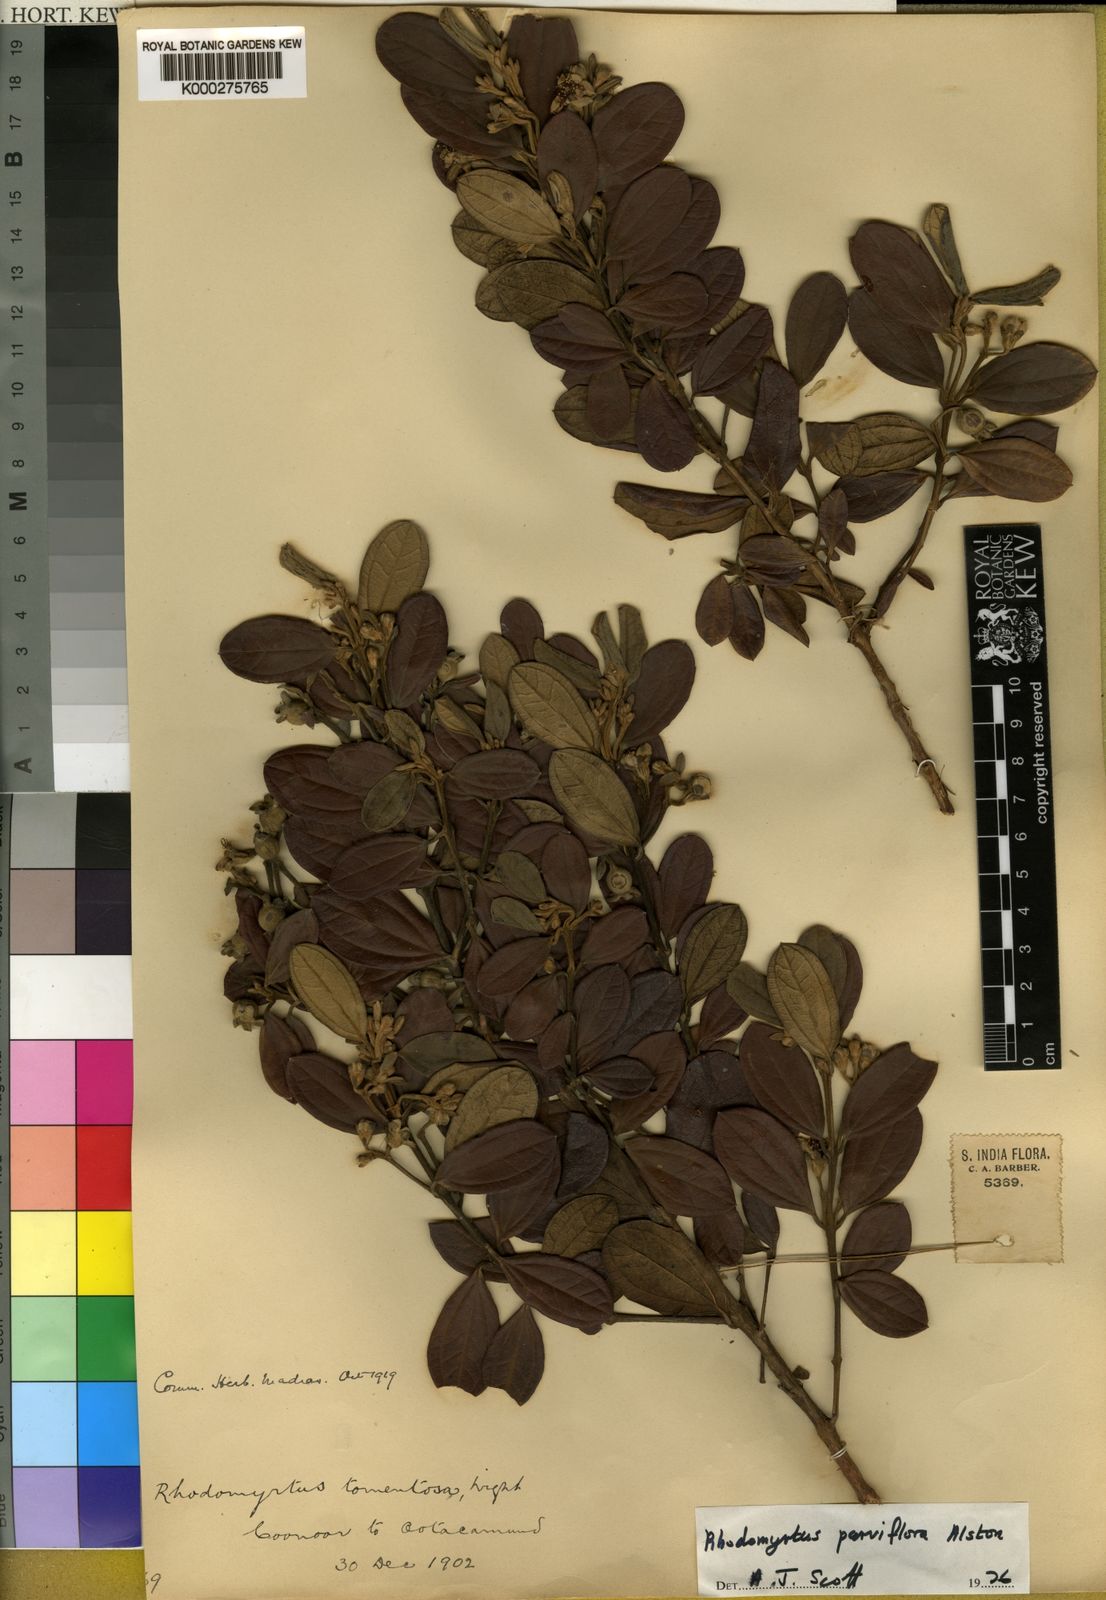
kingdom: Plantae
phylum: Tracheophyta
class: Magnoliopsida
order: Myrtales
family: Myrtaceae
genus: Rhodomyrtus
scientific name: Rhodomyrtus tomentosa
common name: Rose myrtle
